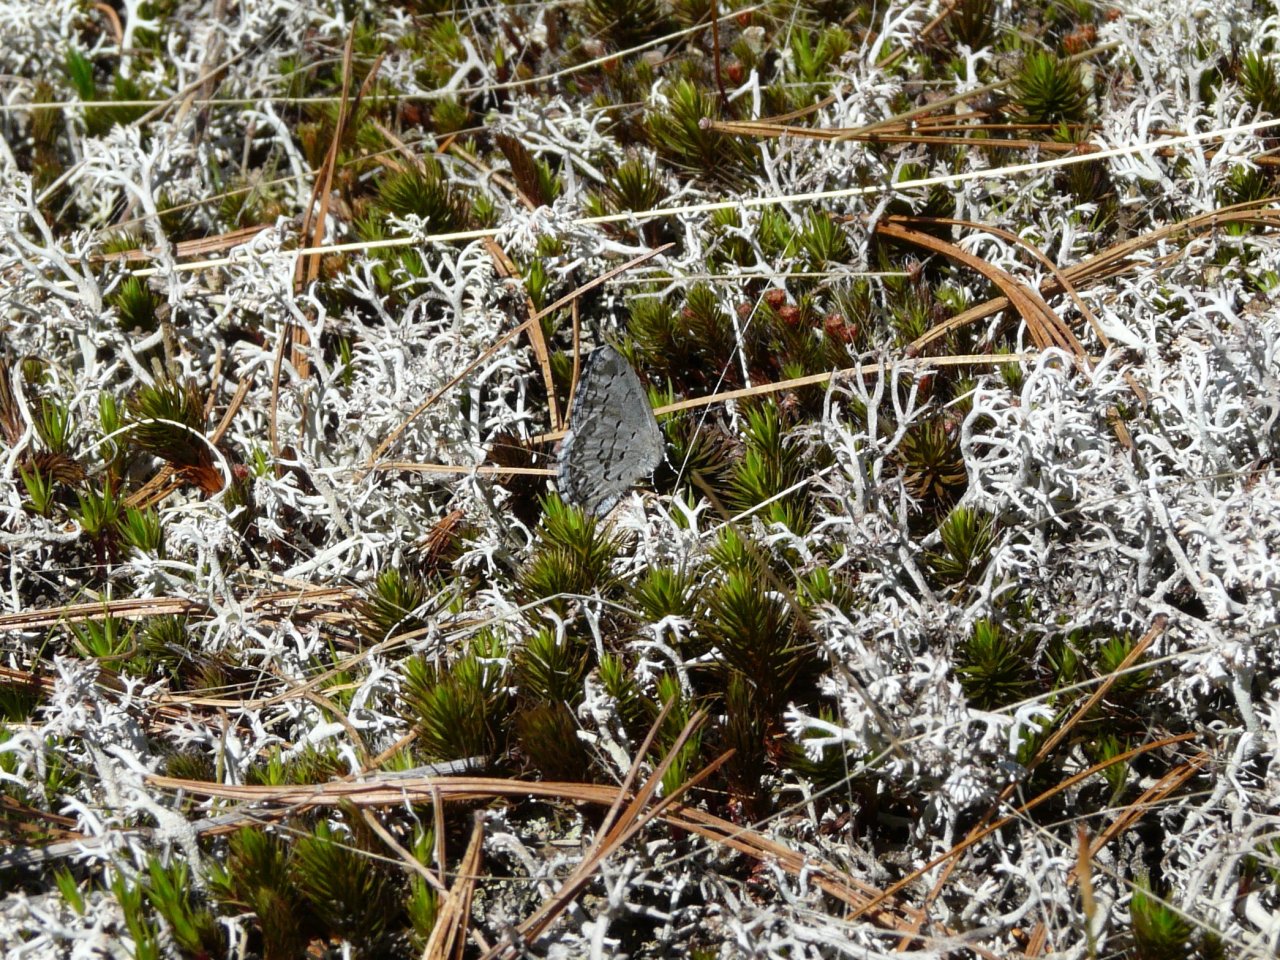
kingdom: Animalia
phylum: Arthropoda
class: Insecta
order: Lepidoptera
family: Lycaenidae
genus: Celastrina
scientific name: Celastrina lucia
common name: Northern Spring Azure
